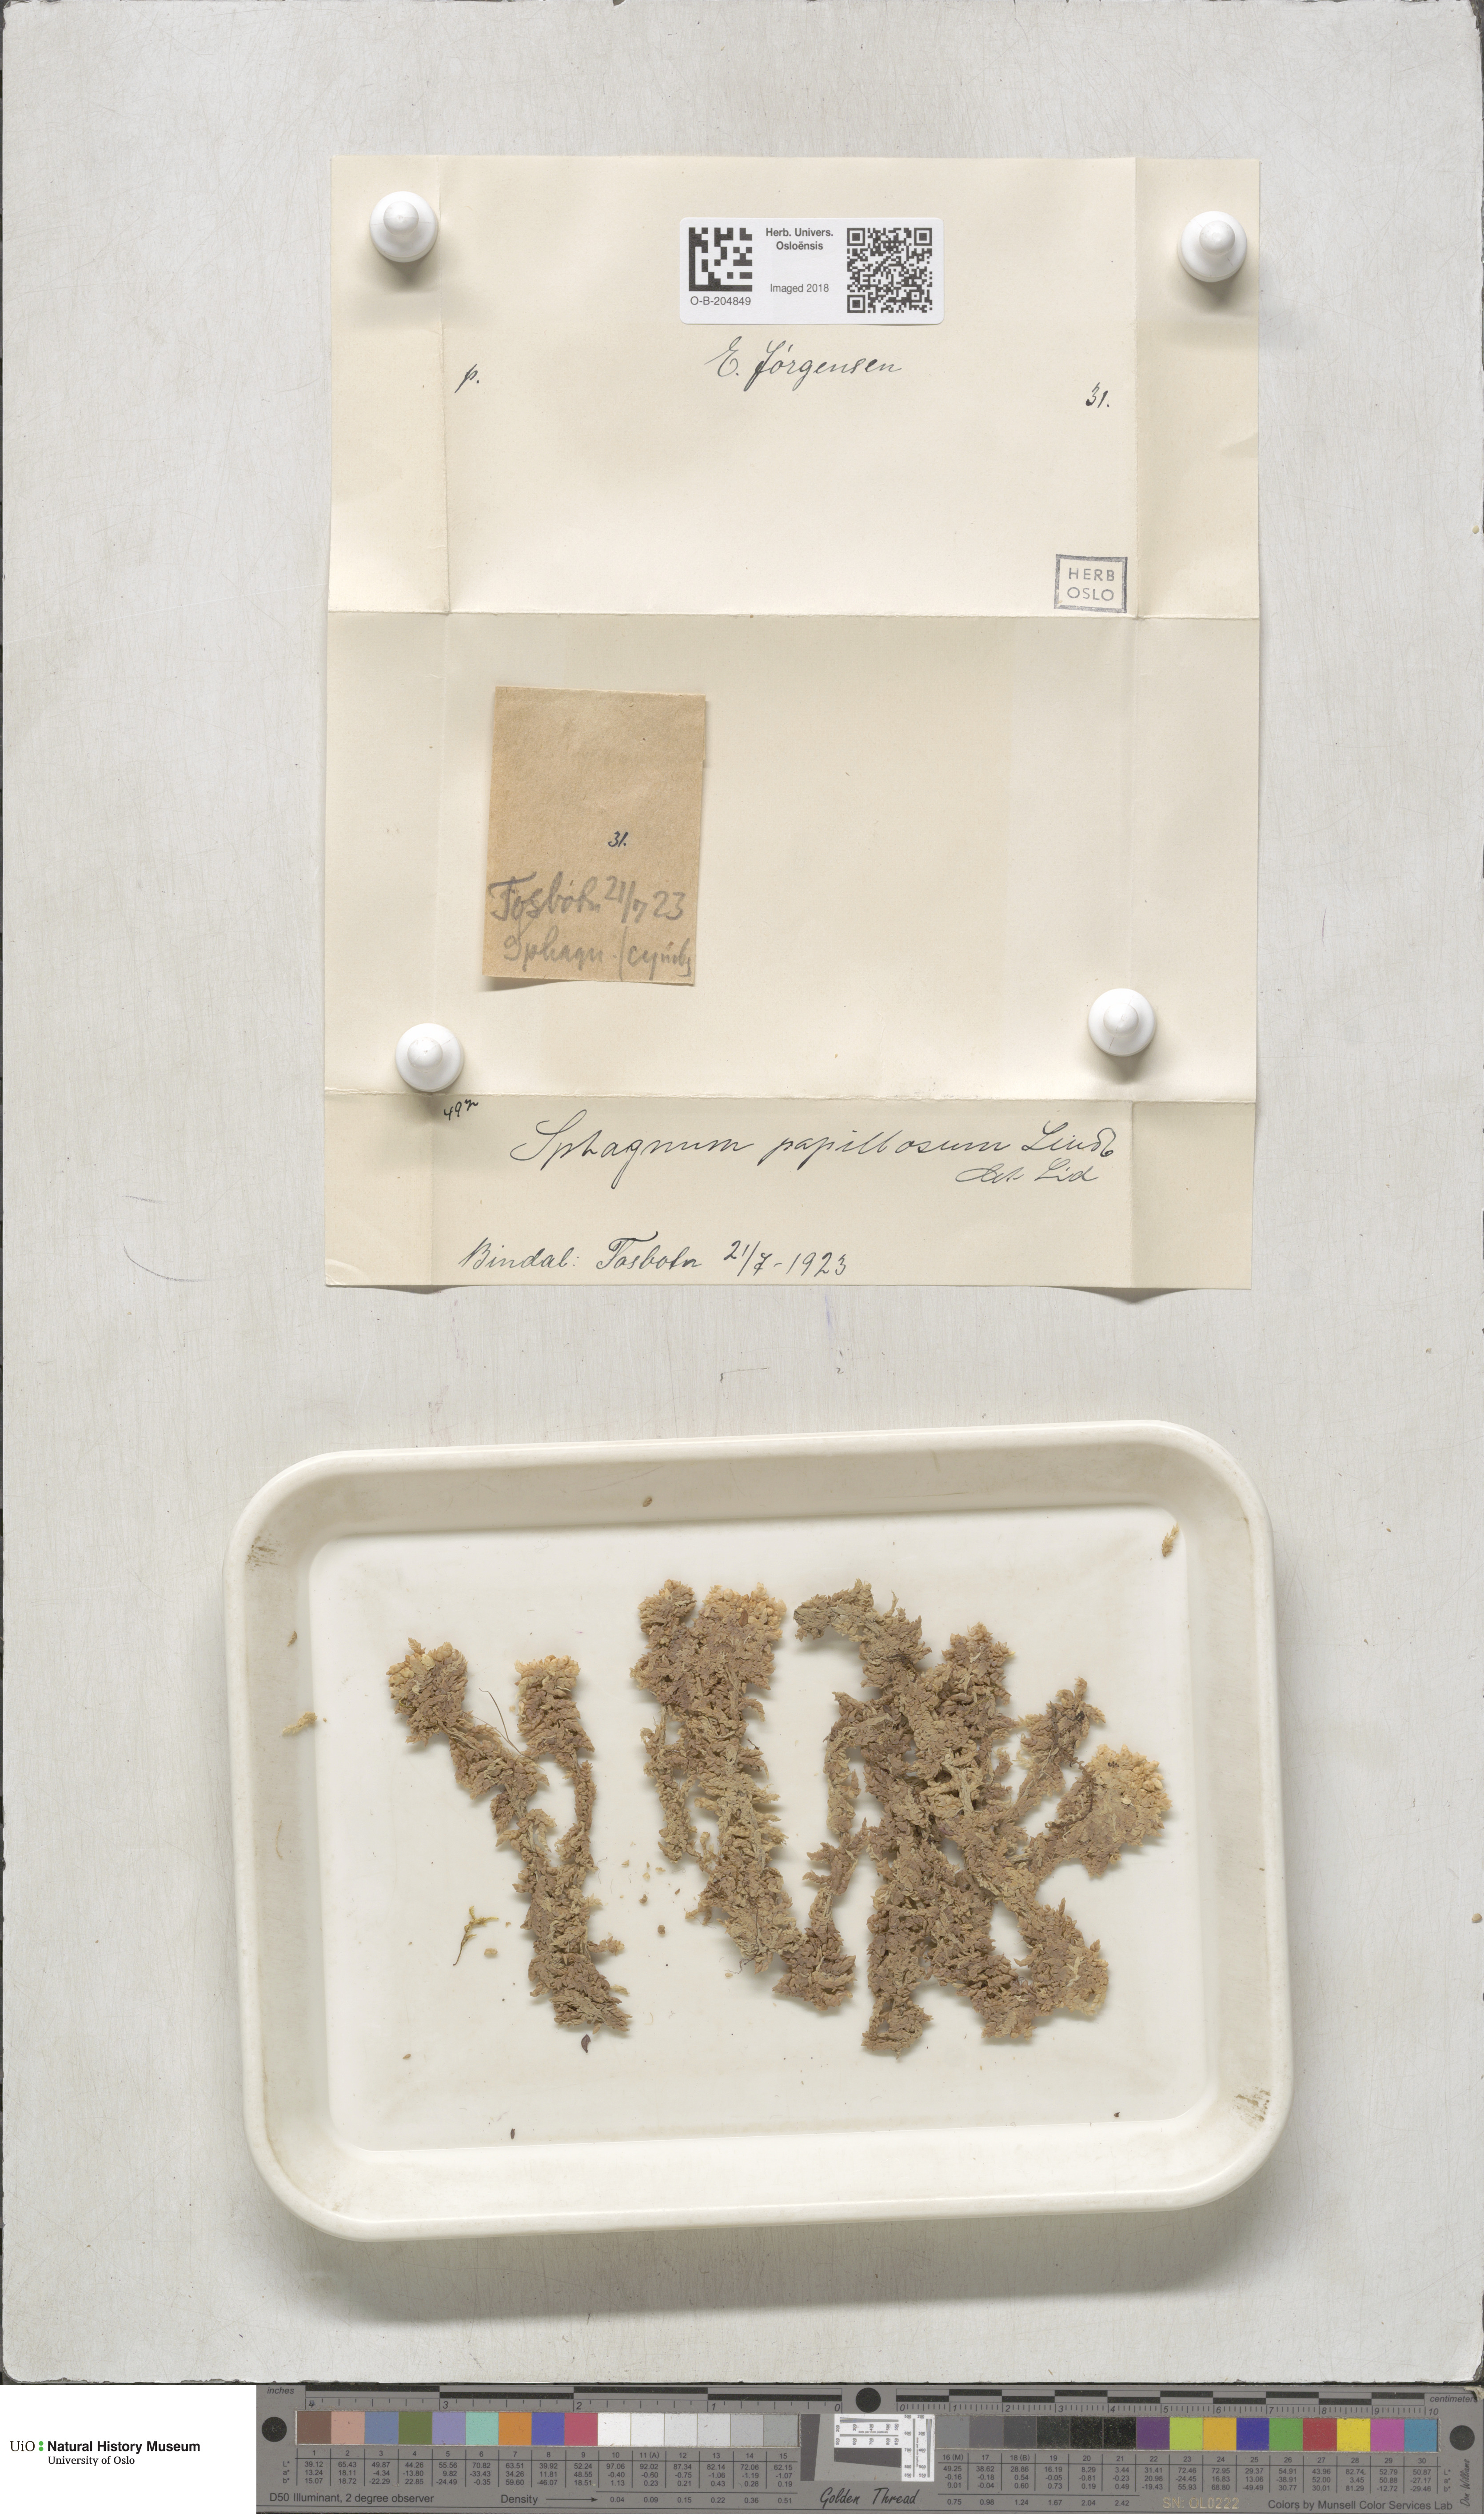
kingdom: Plantae
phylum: Bryophyta
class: Sphagnopsida
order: Sphagnales
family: Sphagnaceae
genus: Sphagnum
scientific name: Sphagnum papillosum
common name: Papillose peat moss
